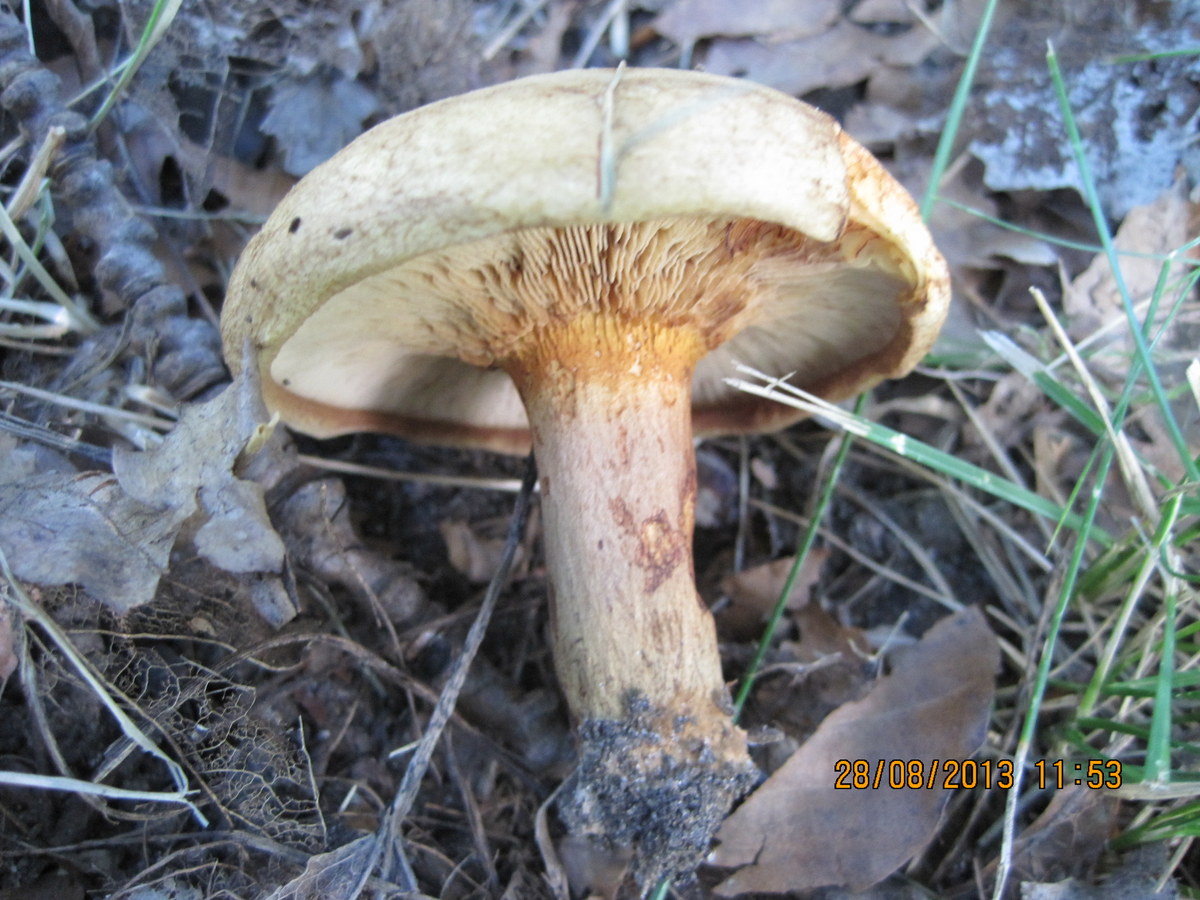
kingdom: Fungi
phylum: Basidiomycota
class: Agaricomycetes
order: Boletales
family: Paxillaceae
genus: Paxillus
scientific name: Paxillus involutus
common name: almindelig netbladhat
